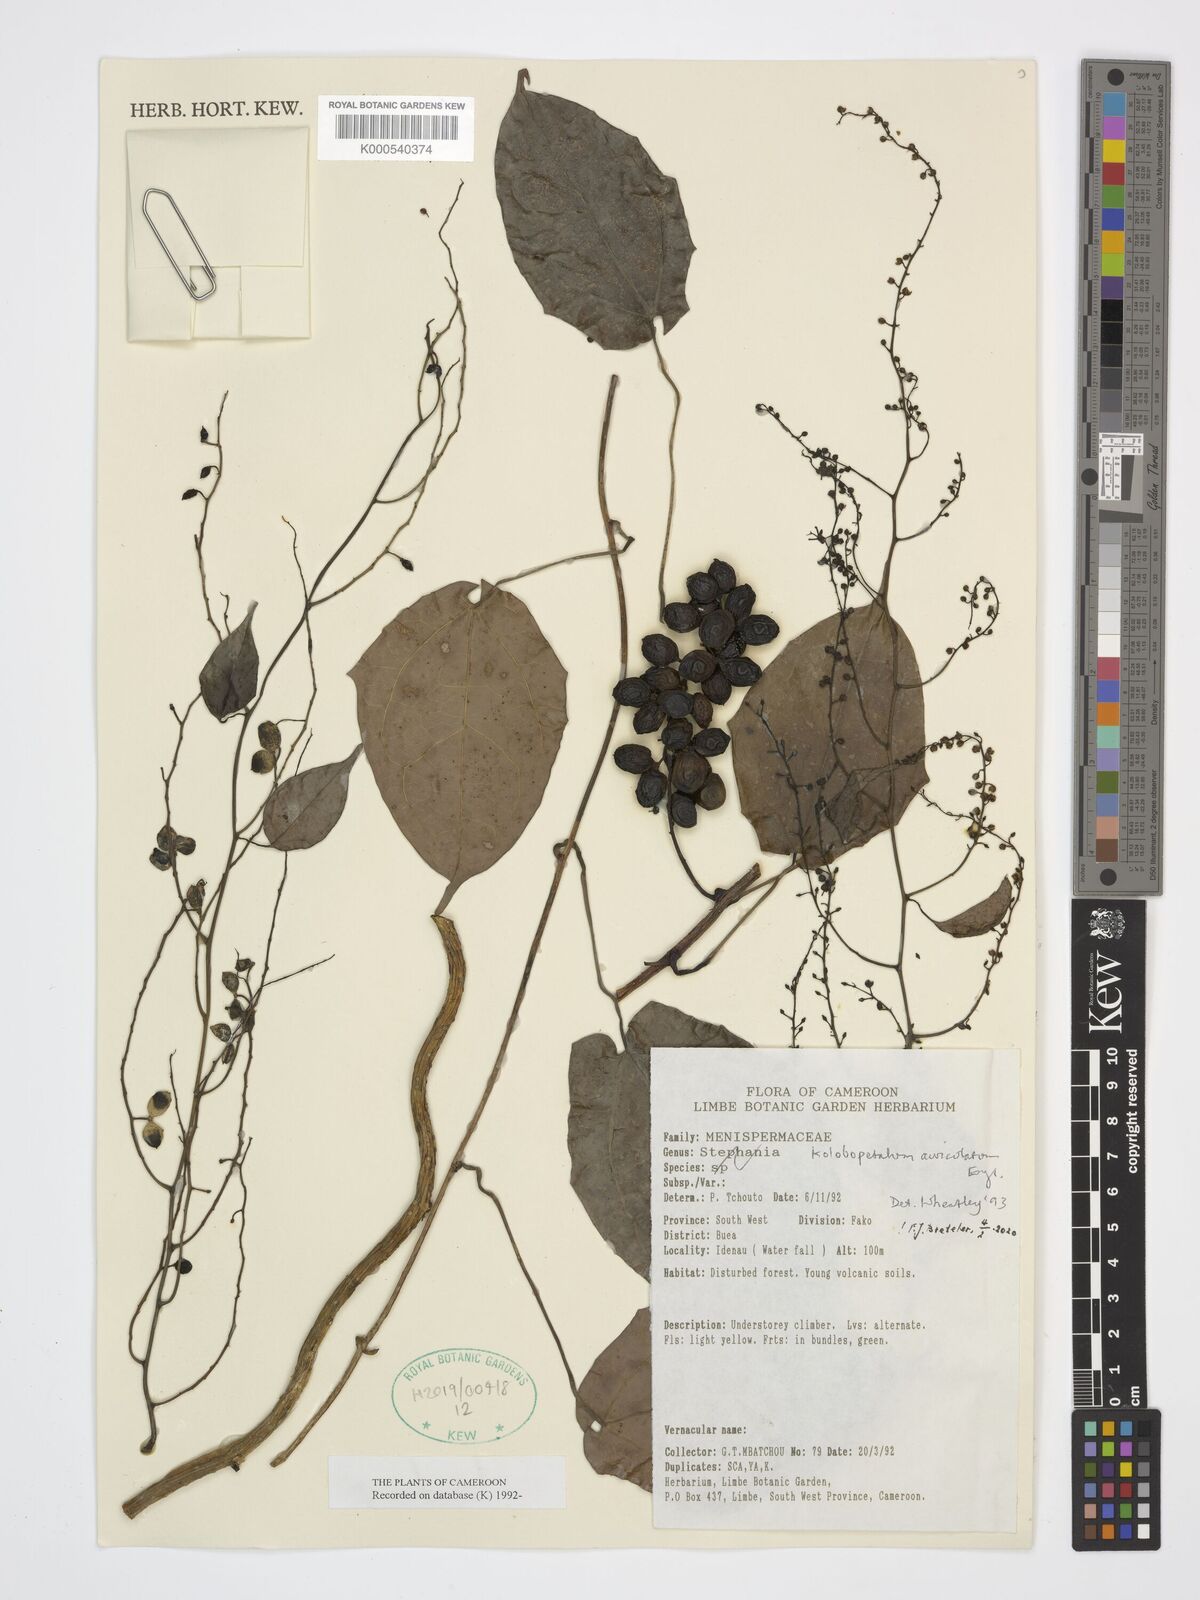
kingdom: Plantae
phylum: Tracheophyta
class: Magnoliopsida
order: Ranunculales
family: Menispermaceae
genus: Kolobopetalum
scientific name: Kolobopetalum auriculatum
